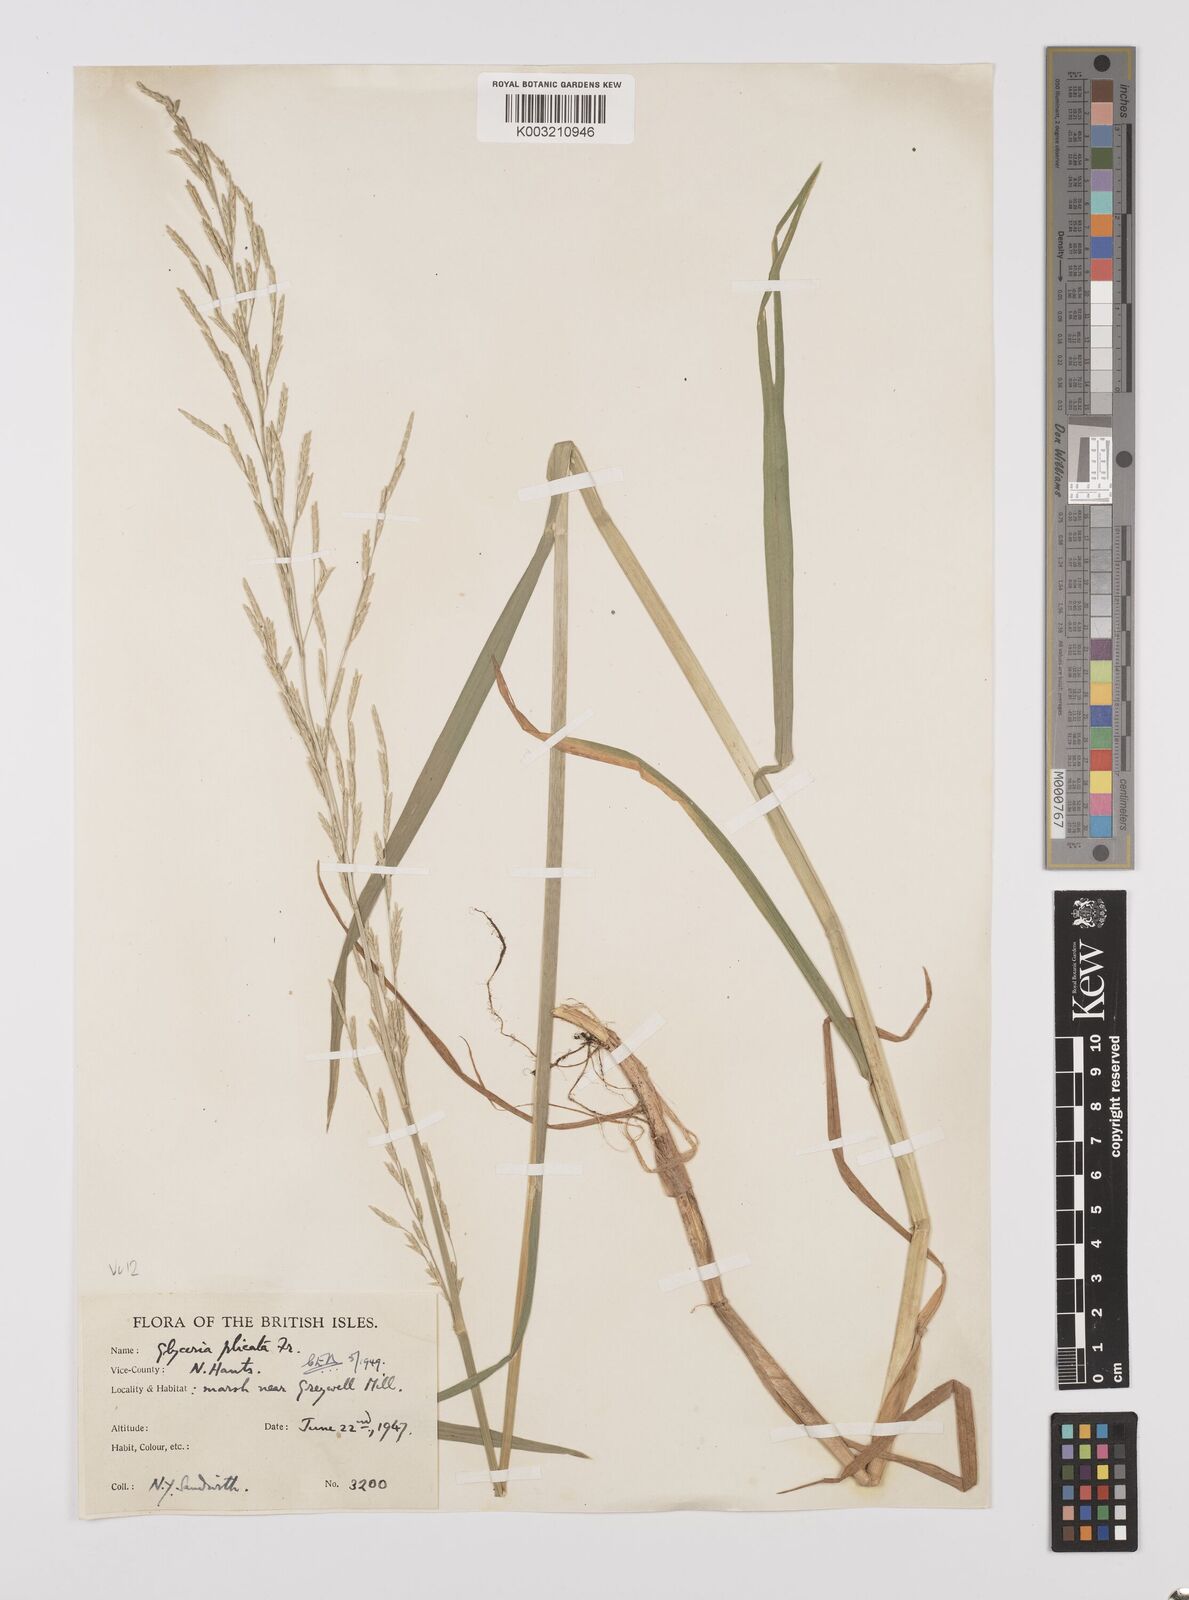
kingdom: Plantae
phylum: Tracheophyta
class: Liliopsida
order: Poales
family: Poaceae
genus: Glyceria
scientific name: Glyceria notata
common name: Plicate sweet-grass
